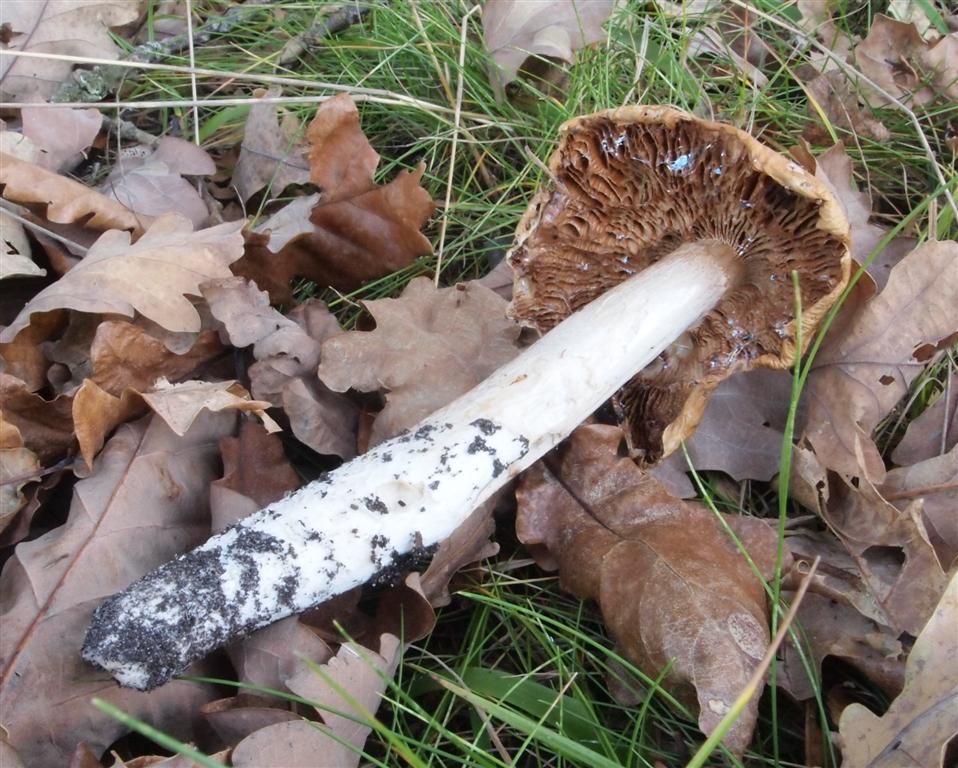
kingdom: Fungi
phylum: Basidiomycota
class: Agaricomycetes
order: Agaricales
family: Cortinariaceae
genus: Cortinarius
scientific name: Cortinarius elatior
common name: høj slørhat
